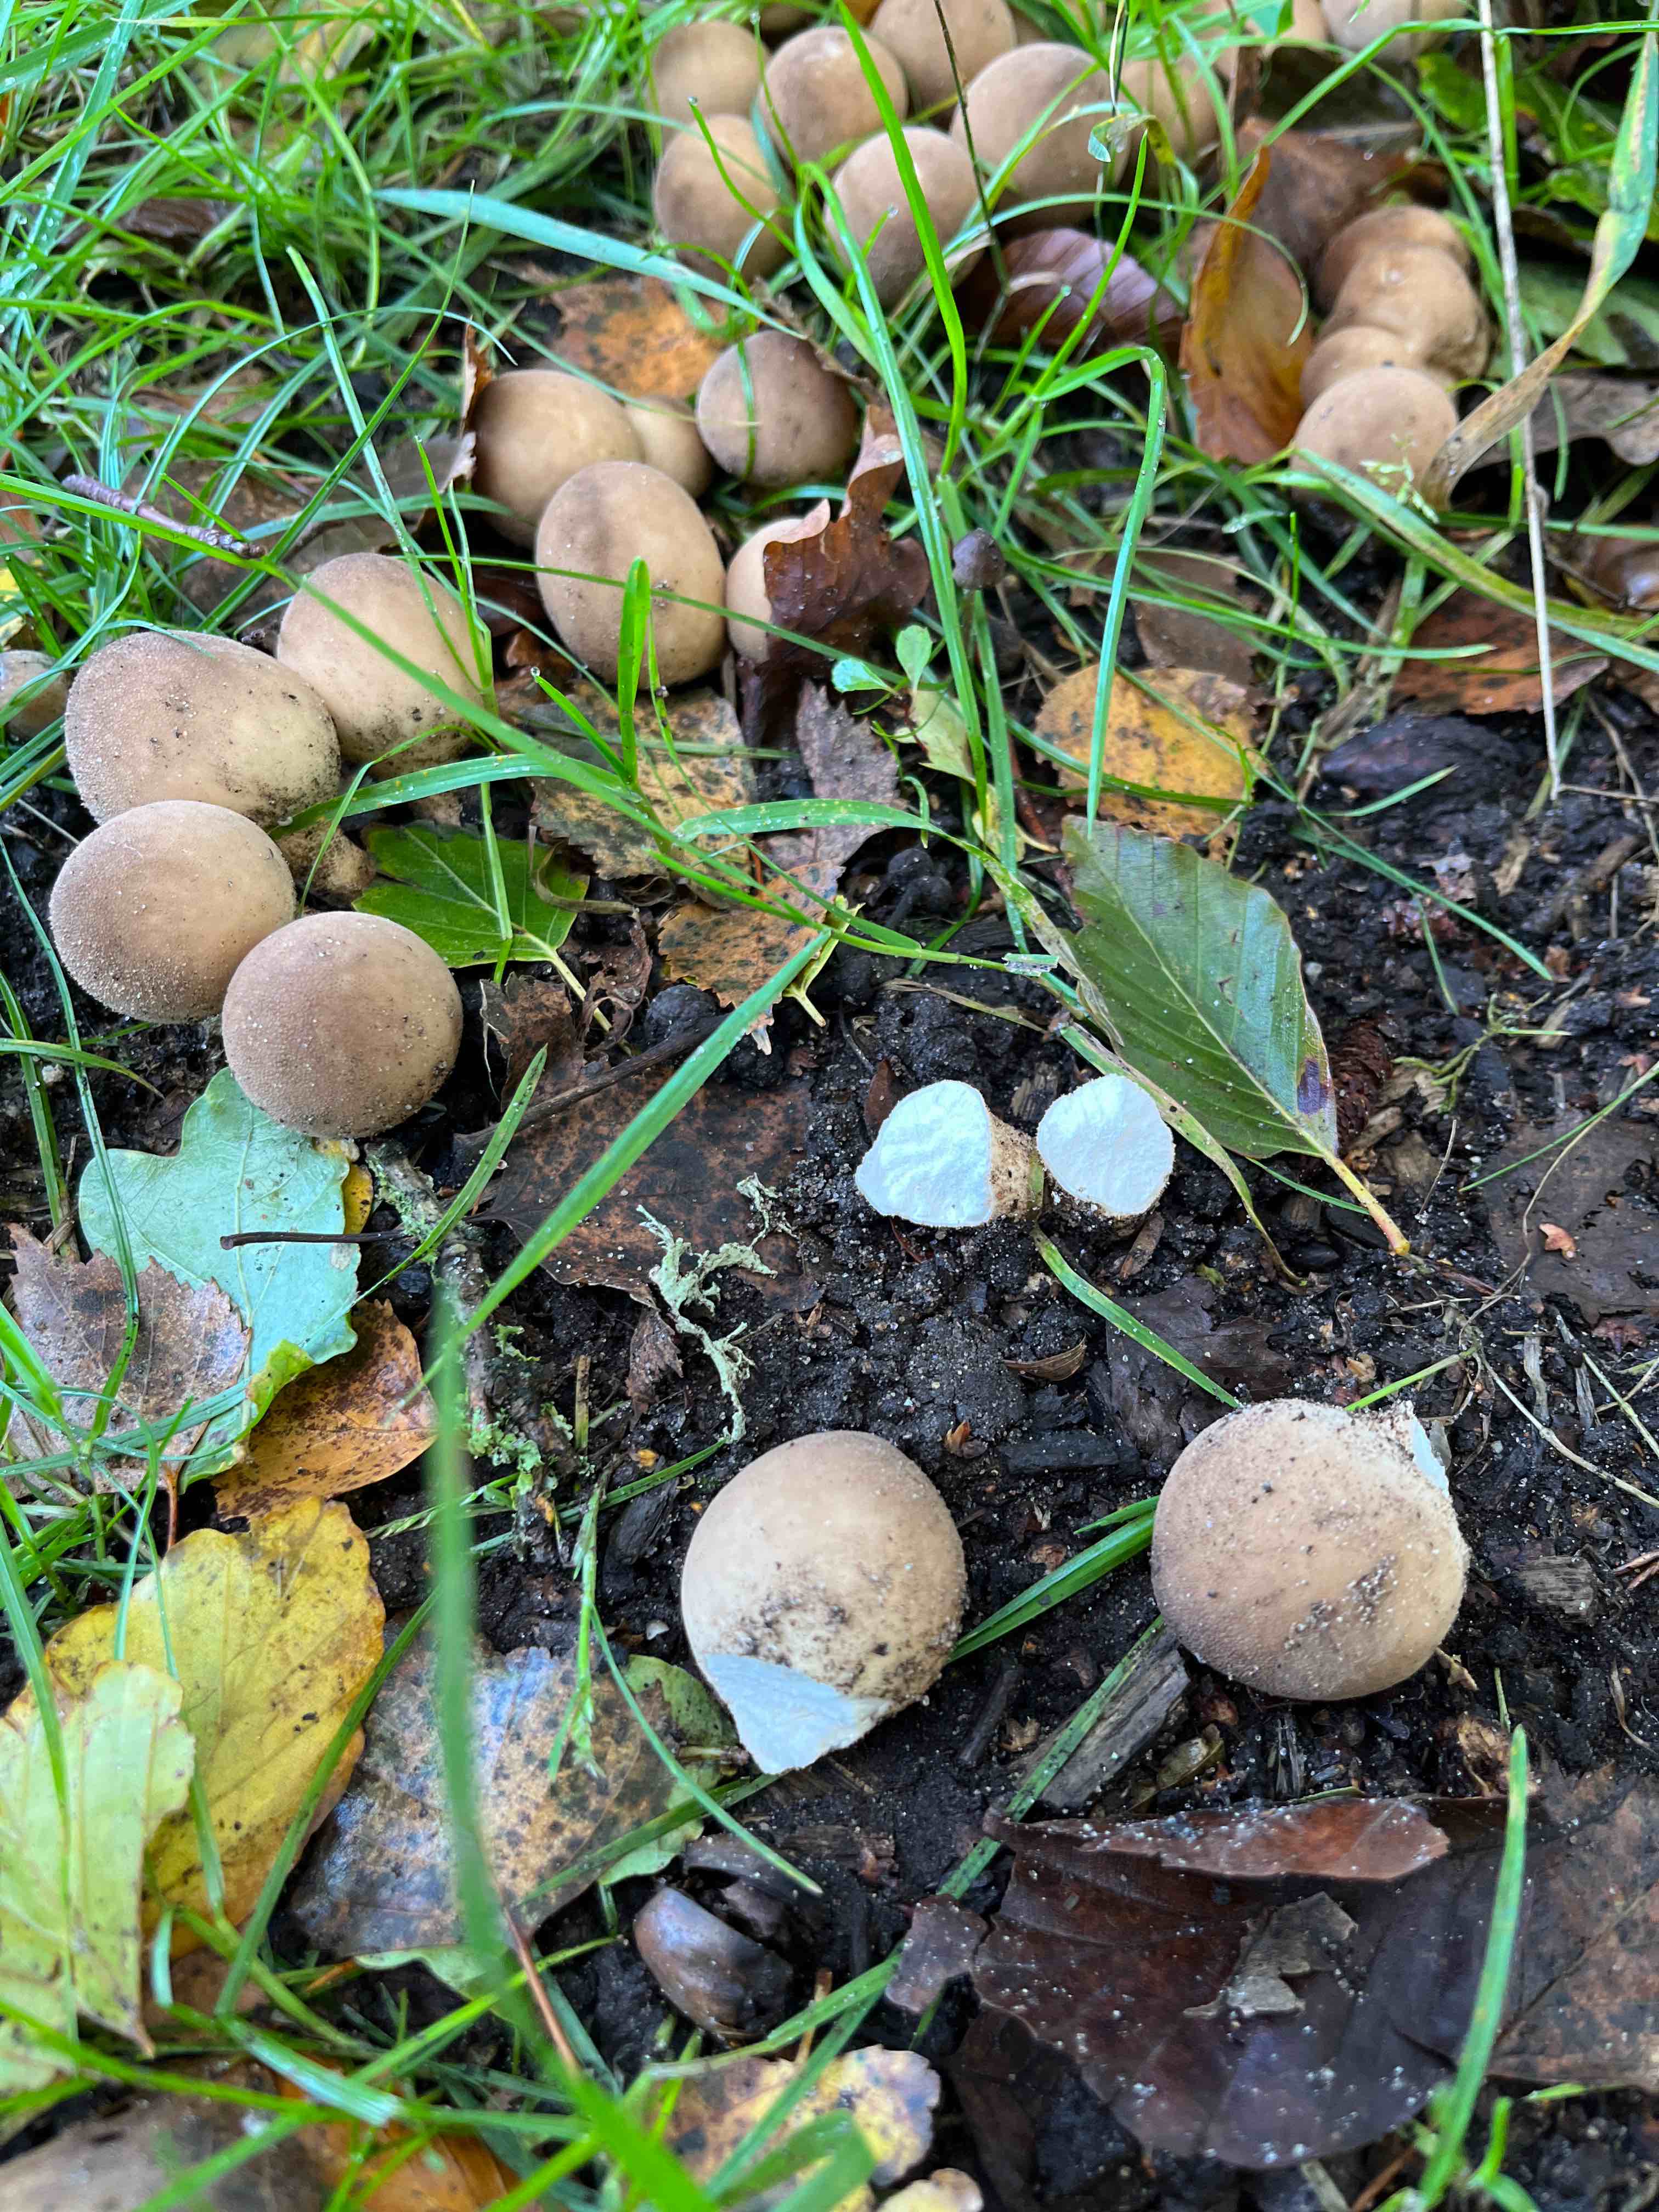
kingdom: Fungi
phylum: Basidiomycota
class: Agaricomycetes
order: Agaricales
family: Lycoperdaceae
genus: Apioperdon
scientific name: Apioperdon pyriforme
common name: pære-støvbold
